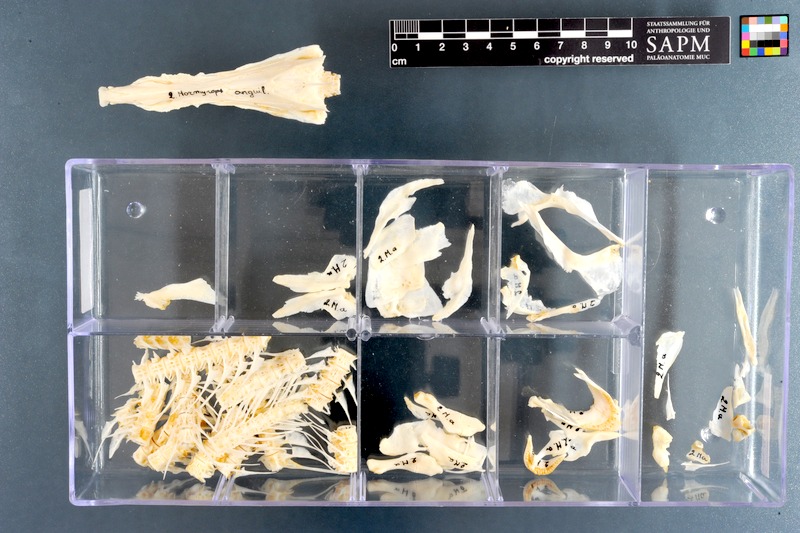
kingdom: Animalia
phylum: Chordata
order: Osteoglossiformes
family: Mormyridae
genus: Mormyrops
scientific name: Mormyrops anguilloides
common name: Cornish jack
